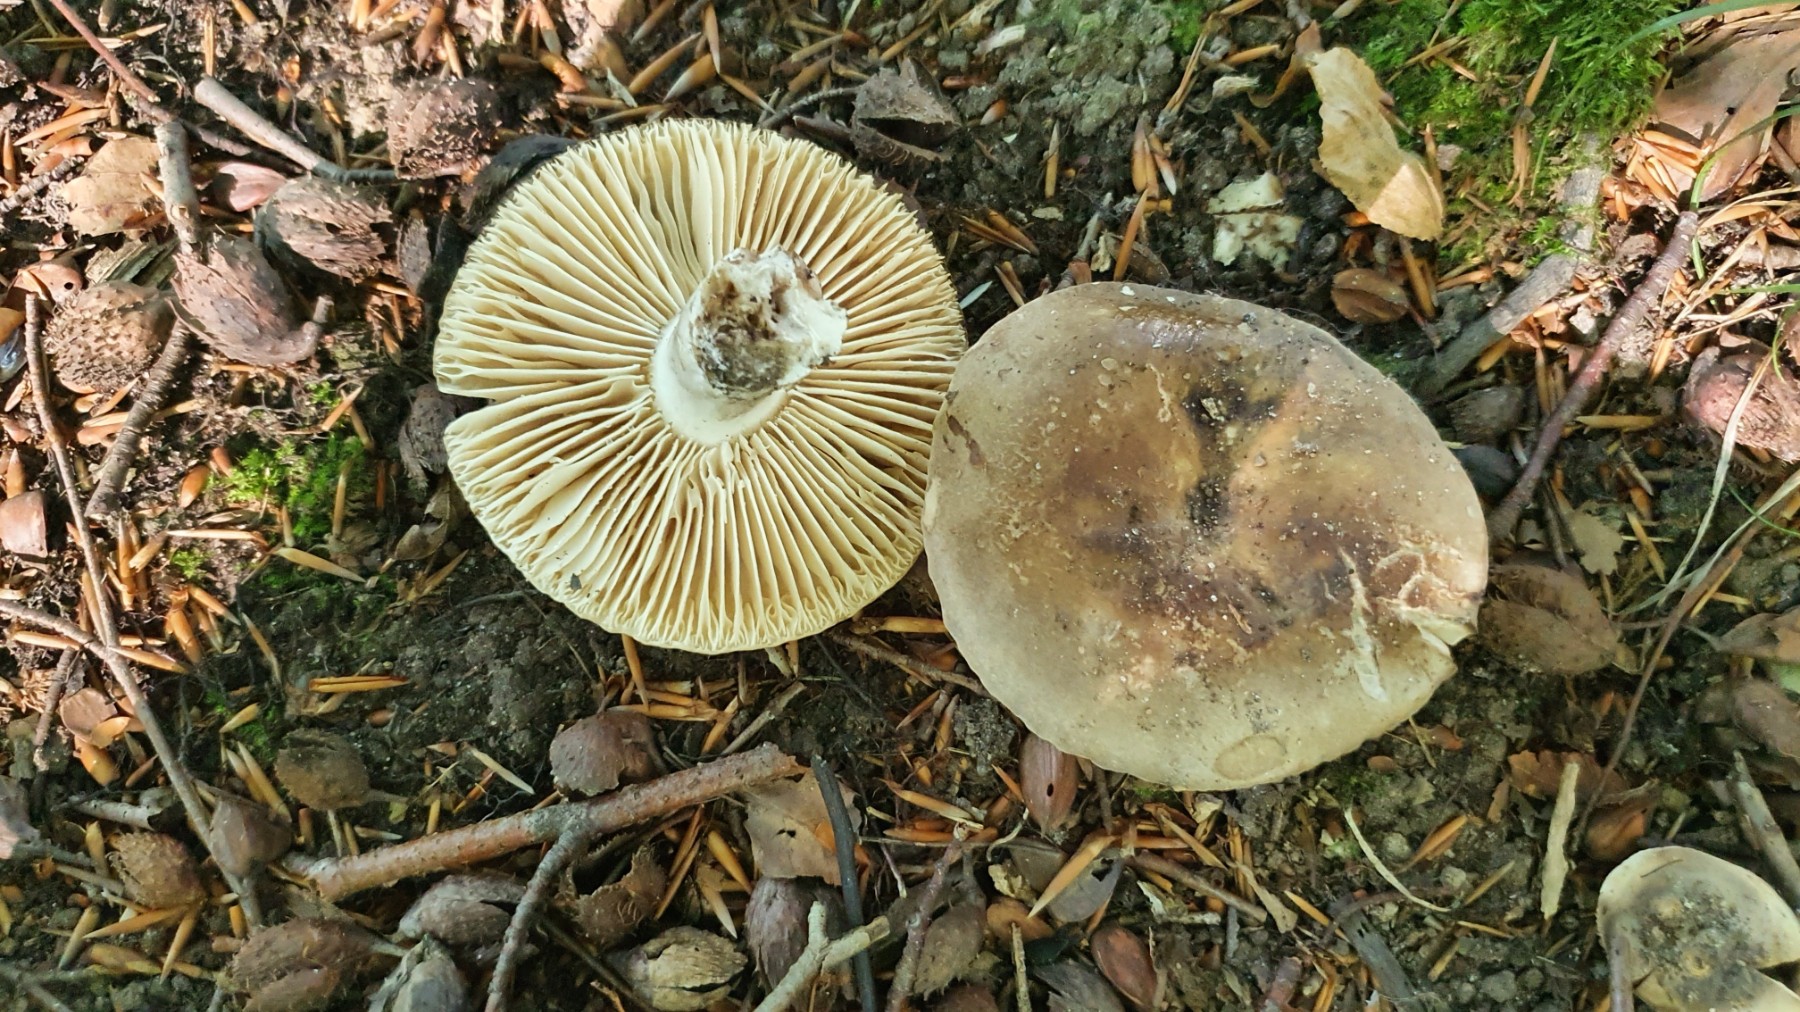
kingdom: Fungi
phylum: Basidiomycota
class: Agaricomycetes
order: Russulales
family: Russulaceae
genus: Russula
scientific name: Russula adusta
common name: sværtende skørhat
